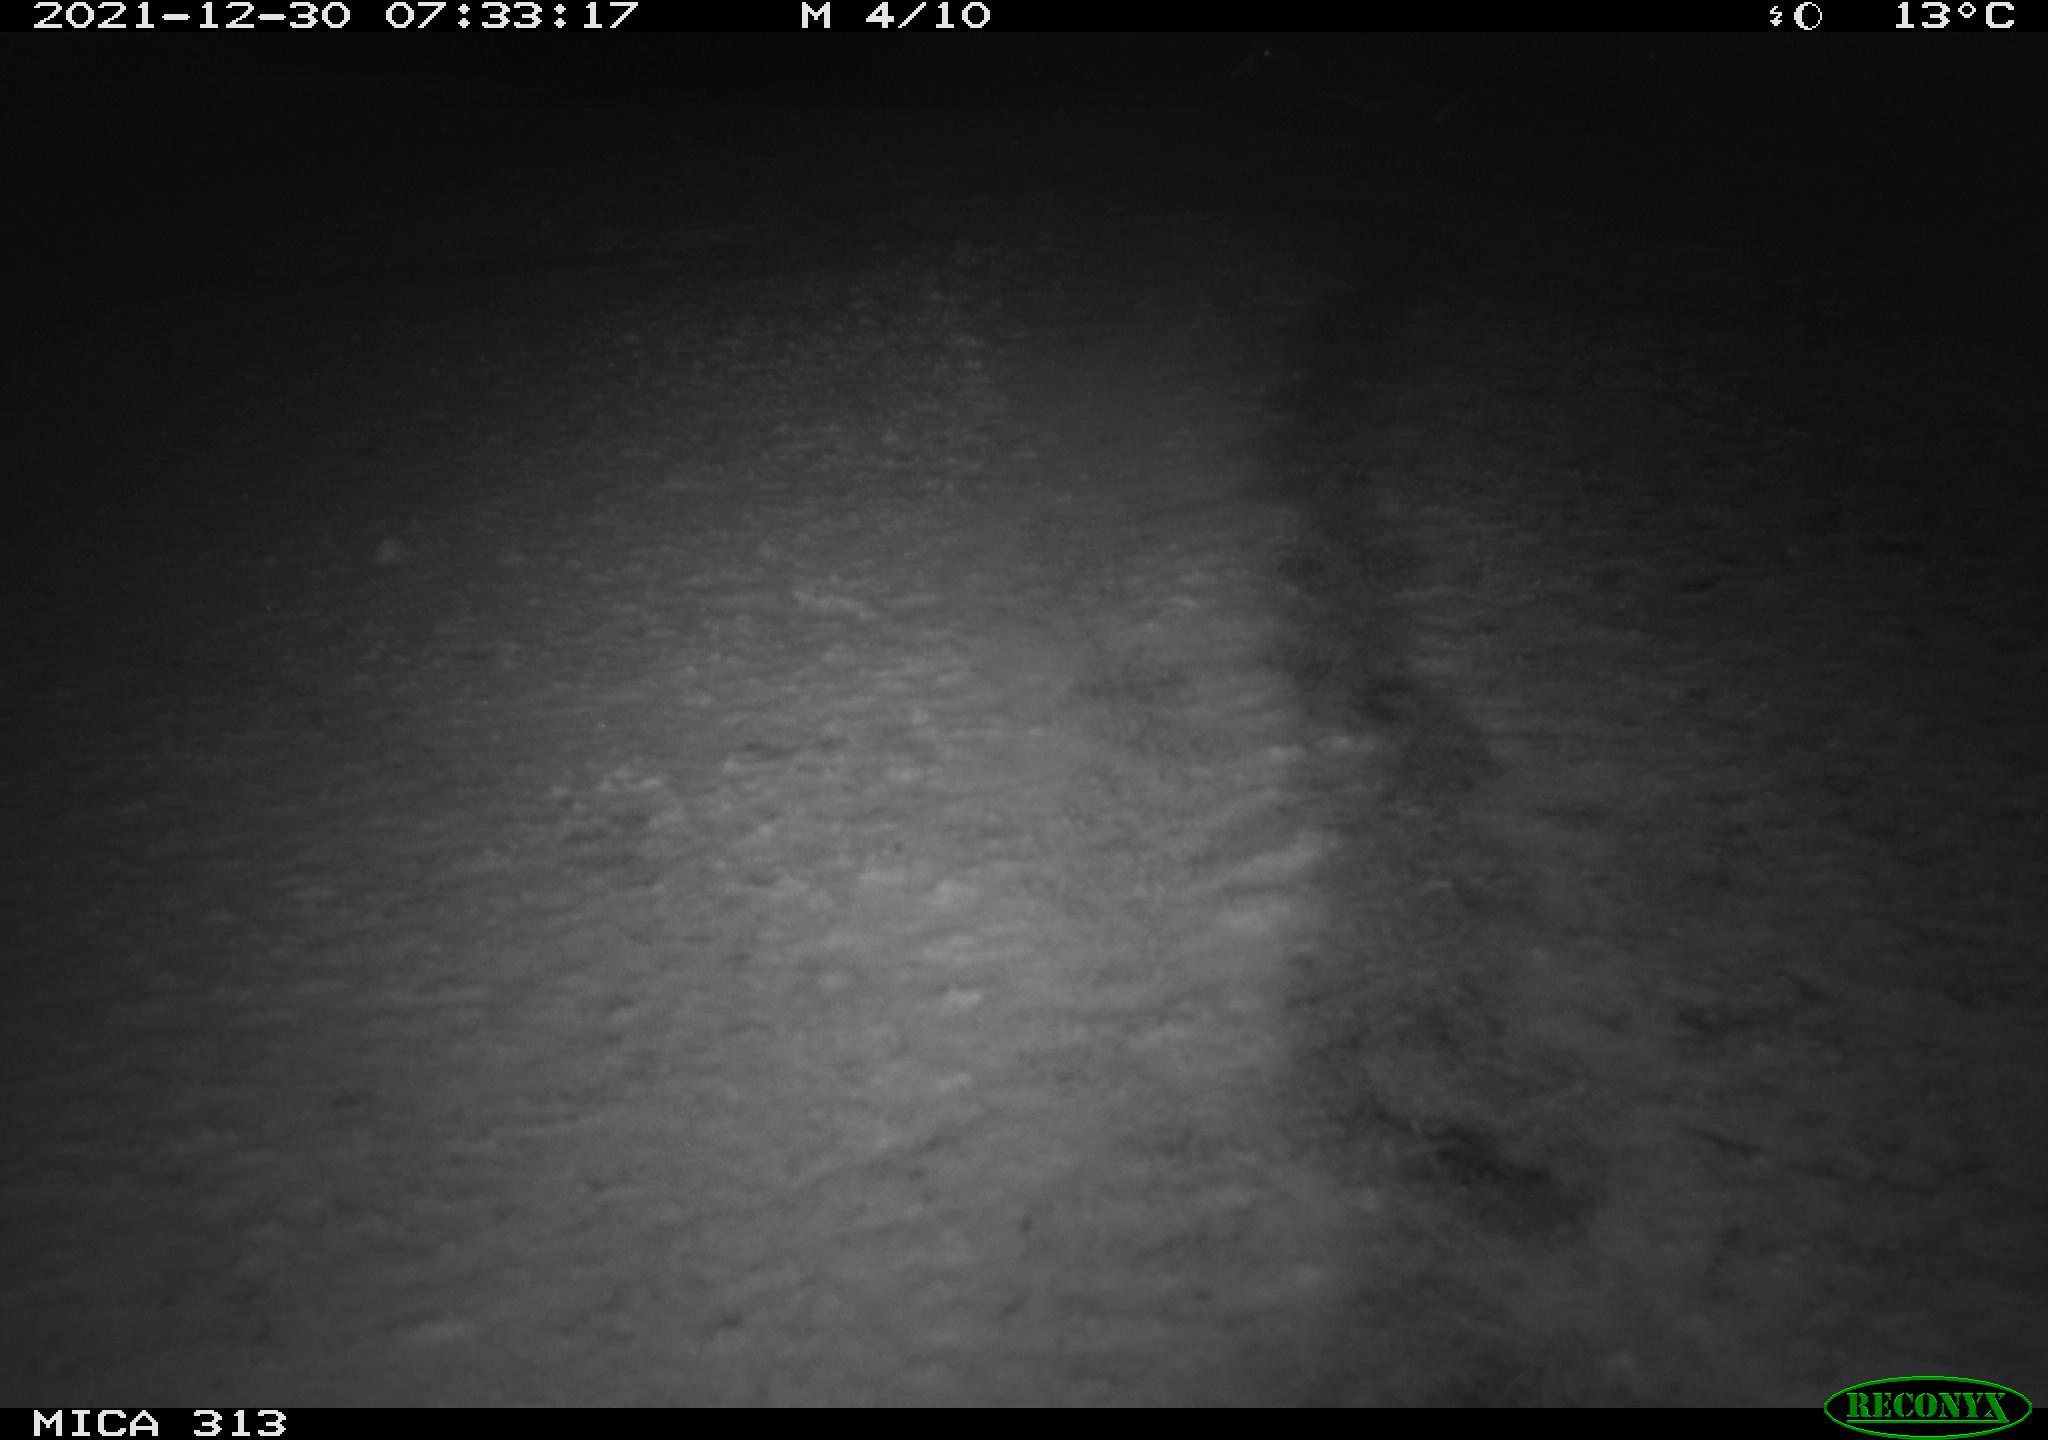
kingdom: Animalia
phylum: Chordata
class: Aves
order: Gruiformes
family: Rallidae
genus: Gallinula
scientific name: Gallinula chloropus
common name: Common moorhen
